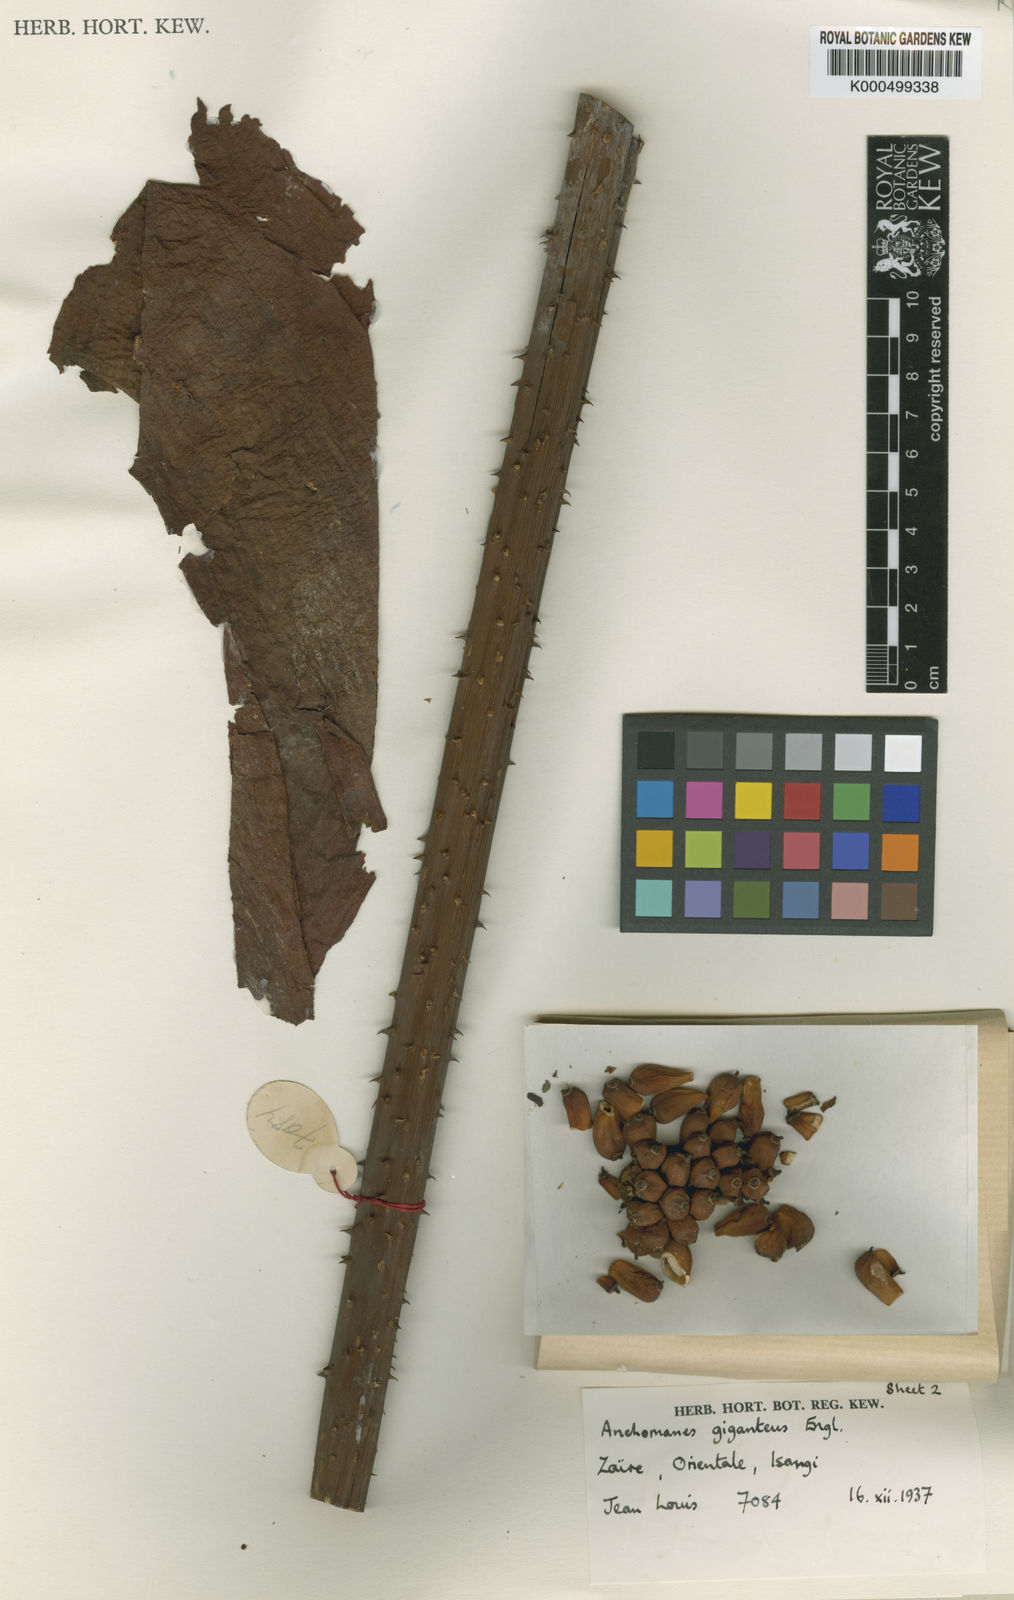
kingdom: Plantae
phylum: Tracheophyta
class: Liliopsida
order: Alismatales
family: Araceae
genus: Anchomanes
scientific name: Anchomanes giganteus
